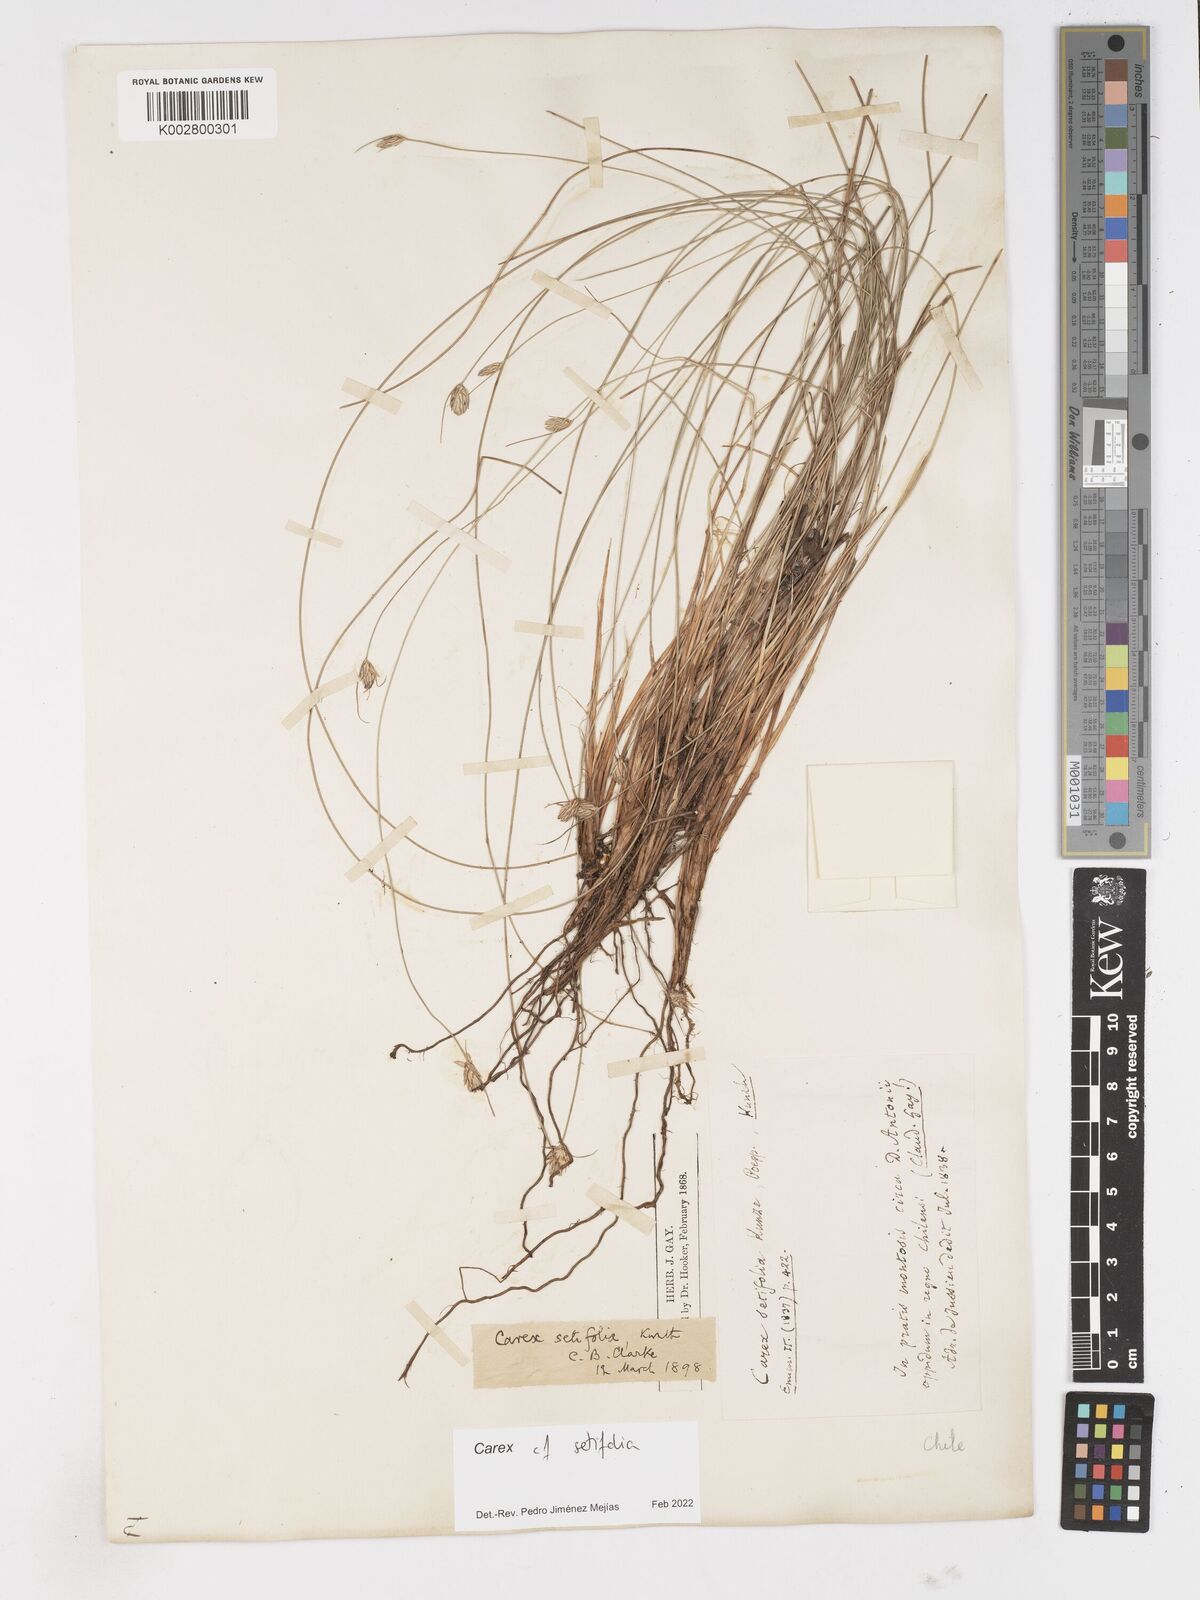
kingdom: Plantae
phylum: Tracheophyta
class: Liliopsida
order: Poales
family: Cyperaceae
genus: Carex
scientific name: Carex setifolia
